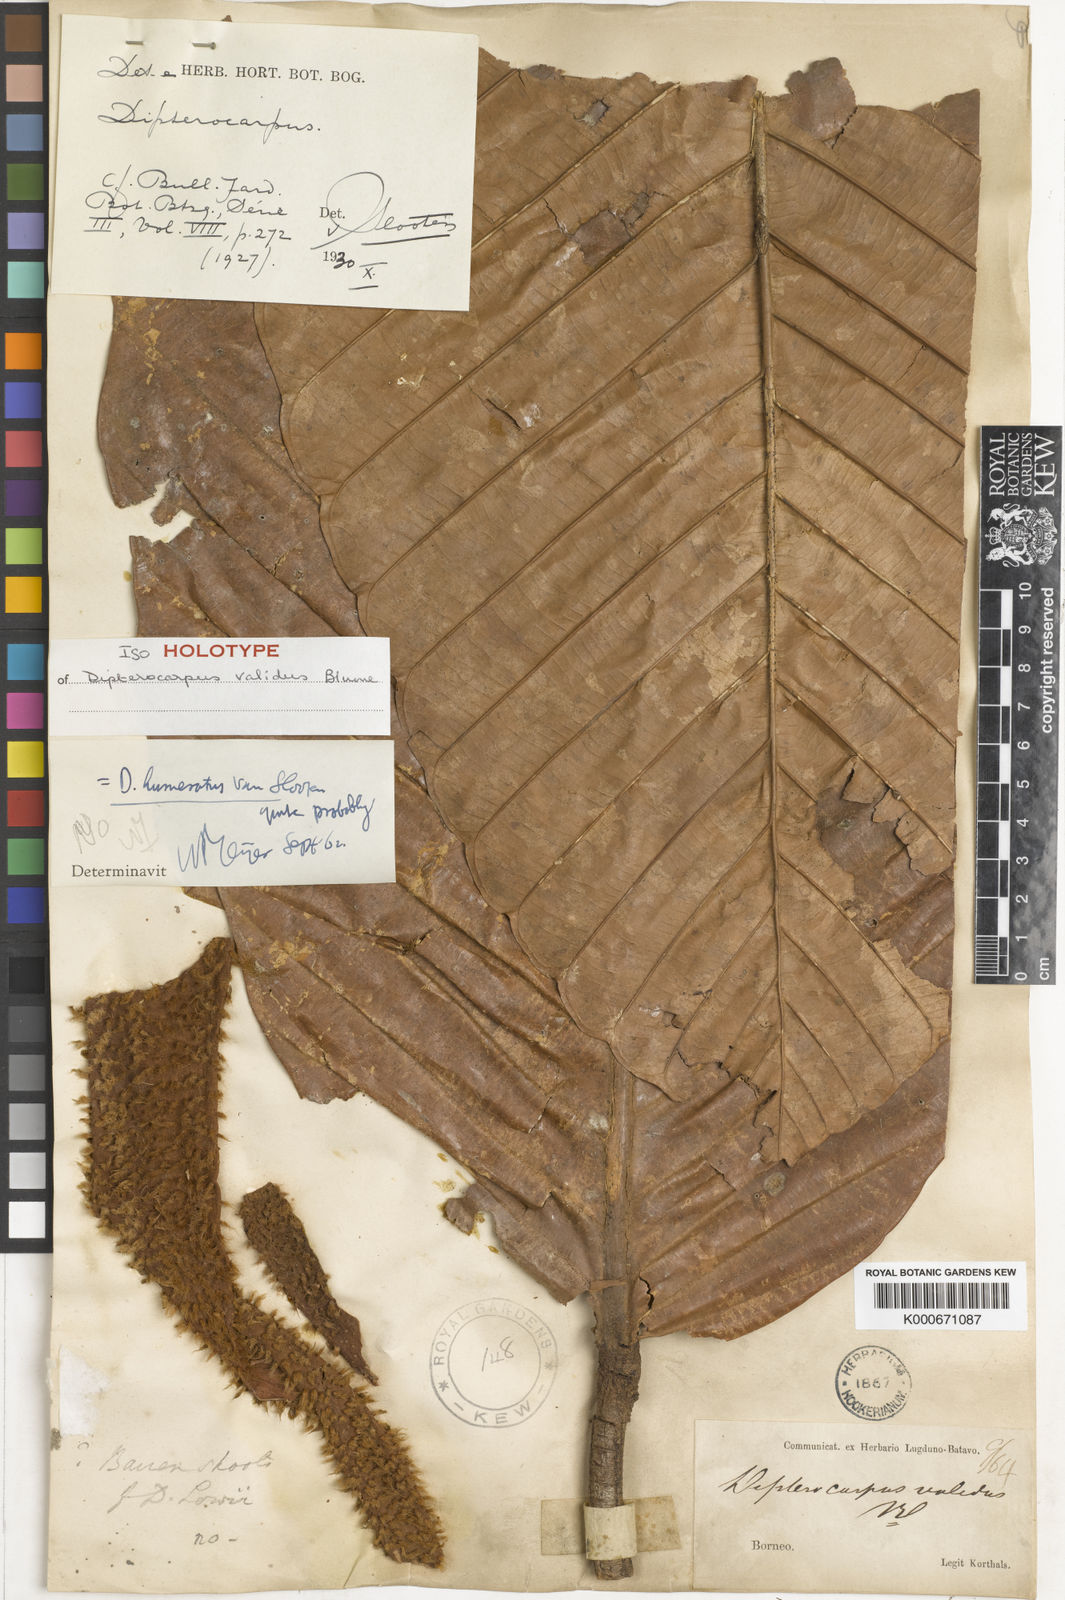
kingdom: Plantae
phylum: Tracheophyta
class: Magnoliopsida
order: Malvales
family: Dipterocarpaceae
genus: Dipterocarpus
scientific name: Dipterocarpus validus
